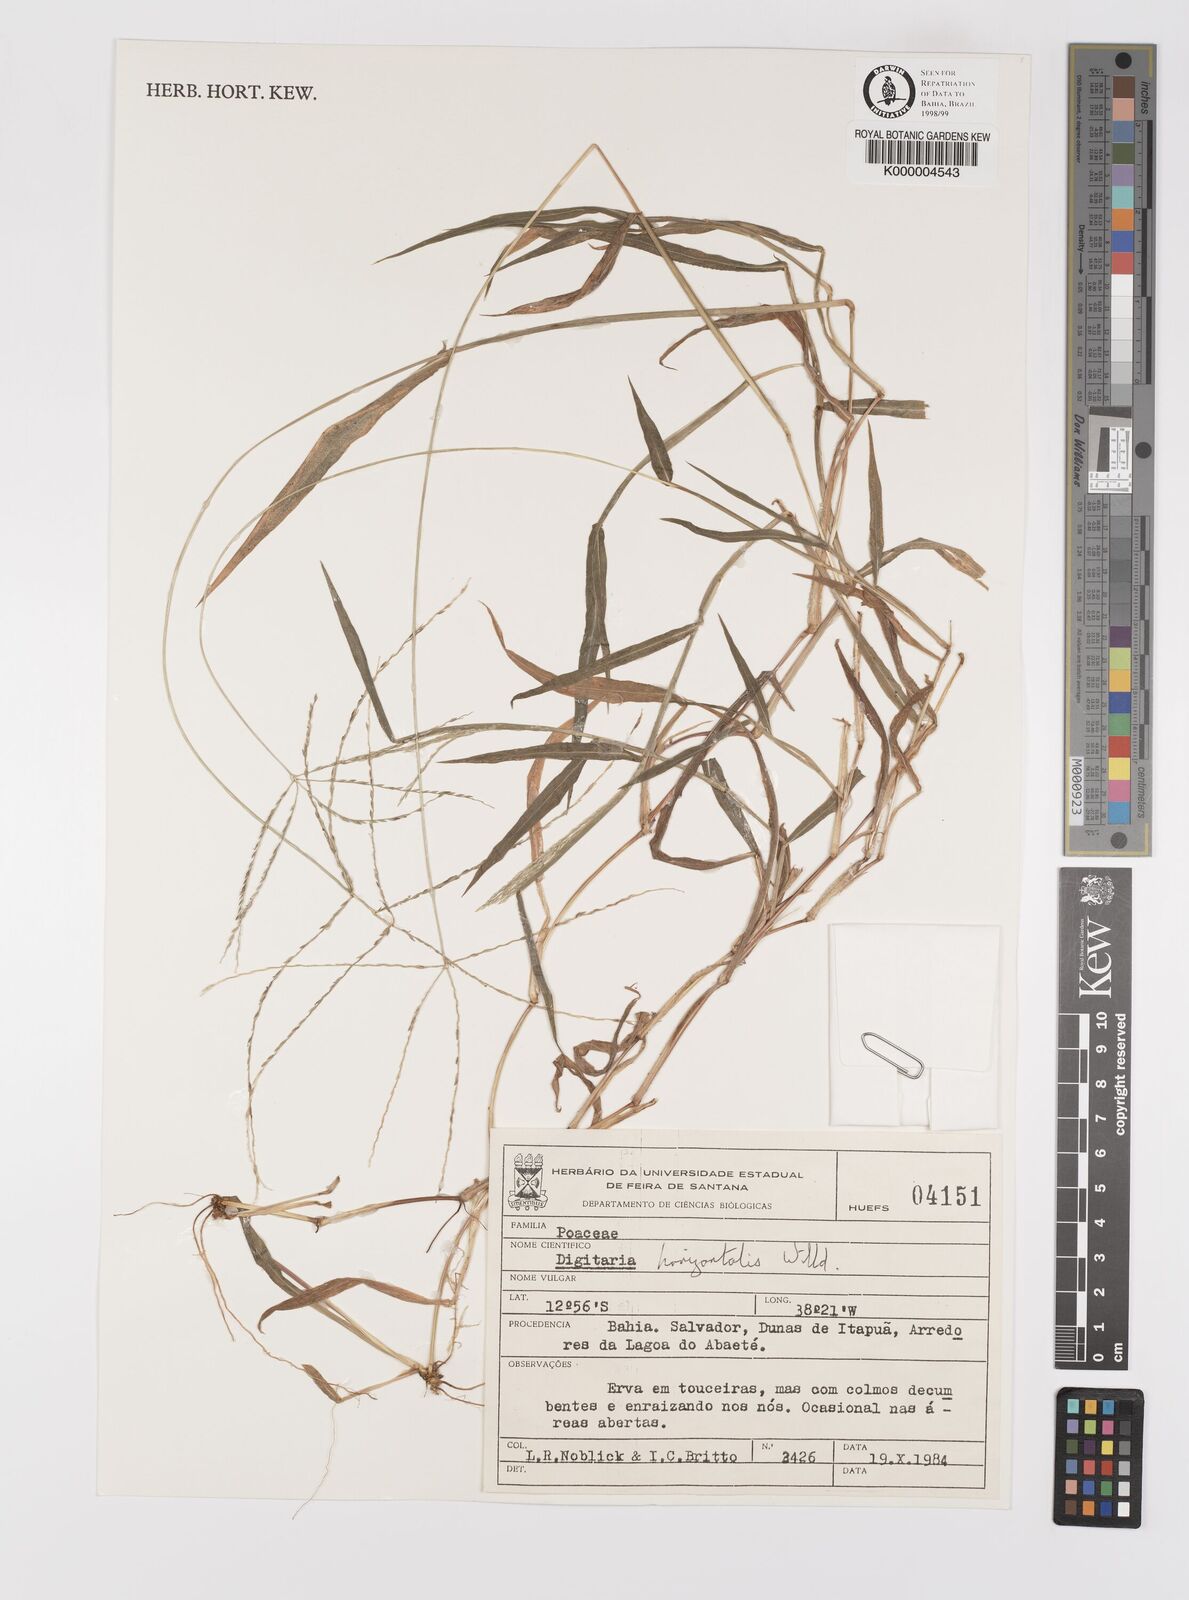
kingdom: Plantae
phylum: Tracheophyta
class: Liliopsida
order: Poales
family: Poaceae
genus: Digitaria
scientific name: Digitaria horizontalis
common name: Jamaican crabgrass
